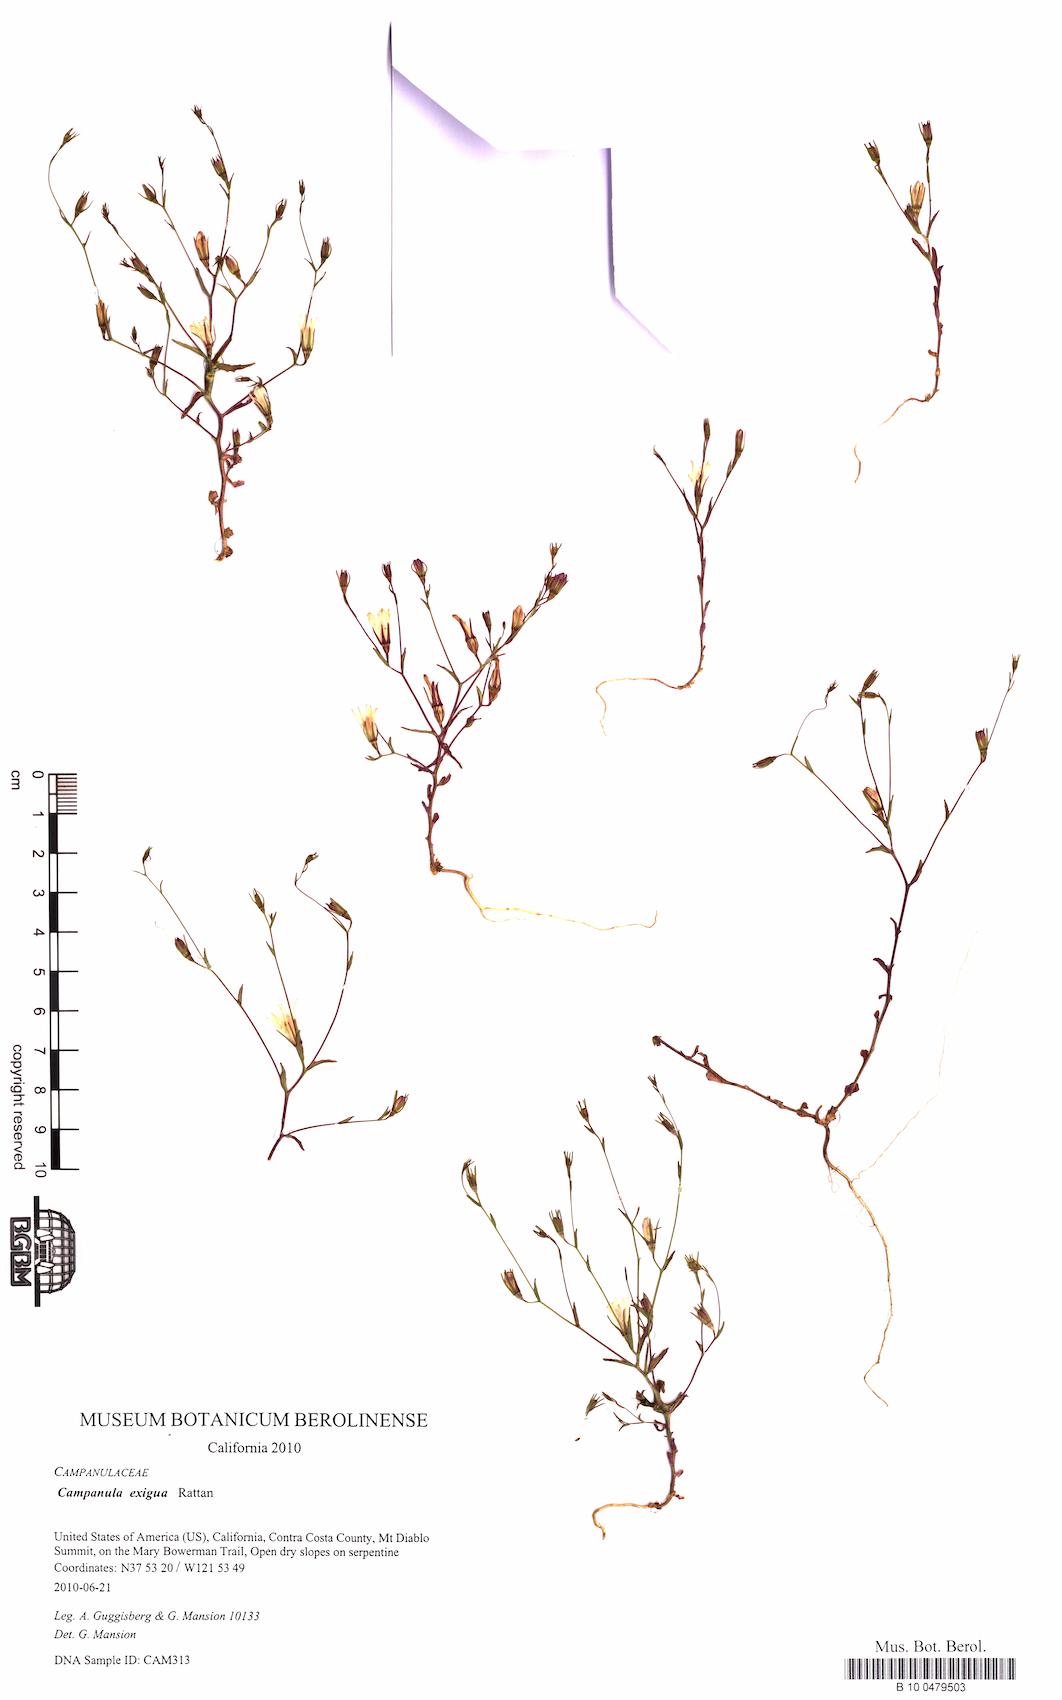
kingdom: Plantae
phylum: Tracheophyta
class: Magnoliopsida
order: Asterales
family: Campanulaceae
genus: Ravenella
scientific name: Ravenella exigua
